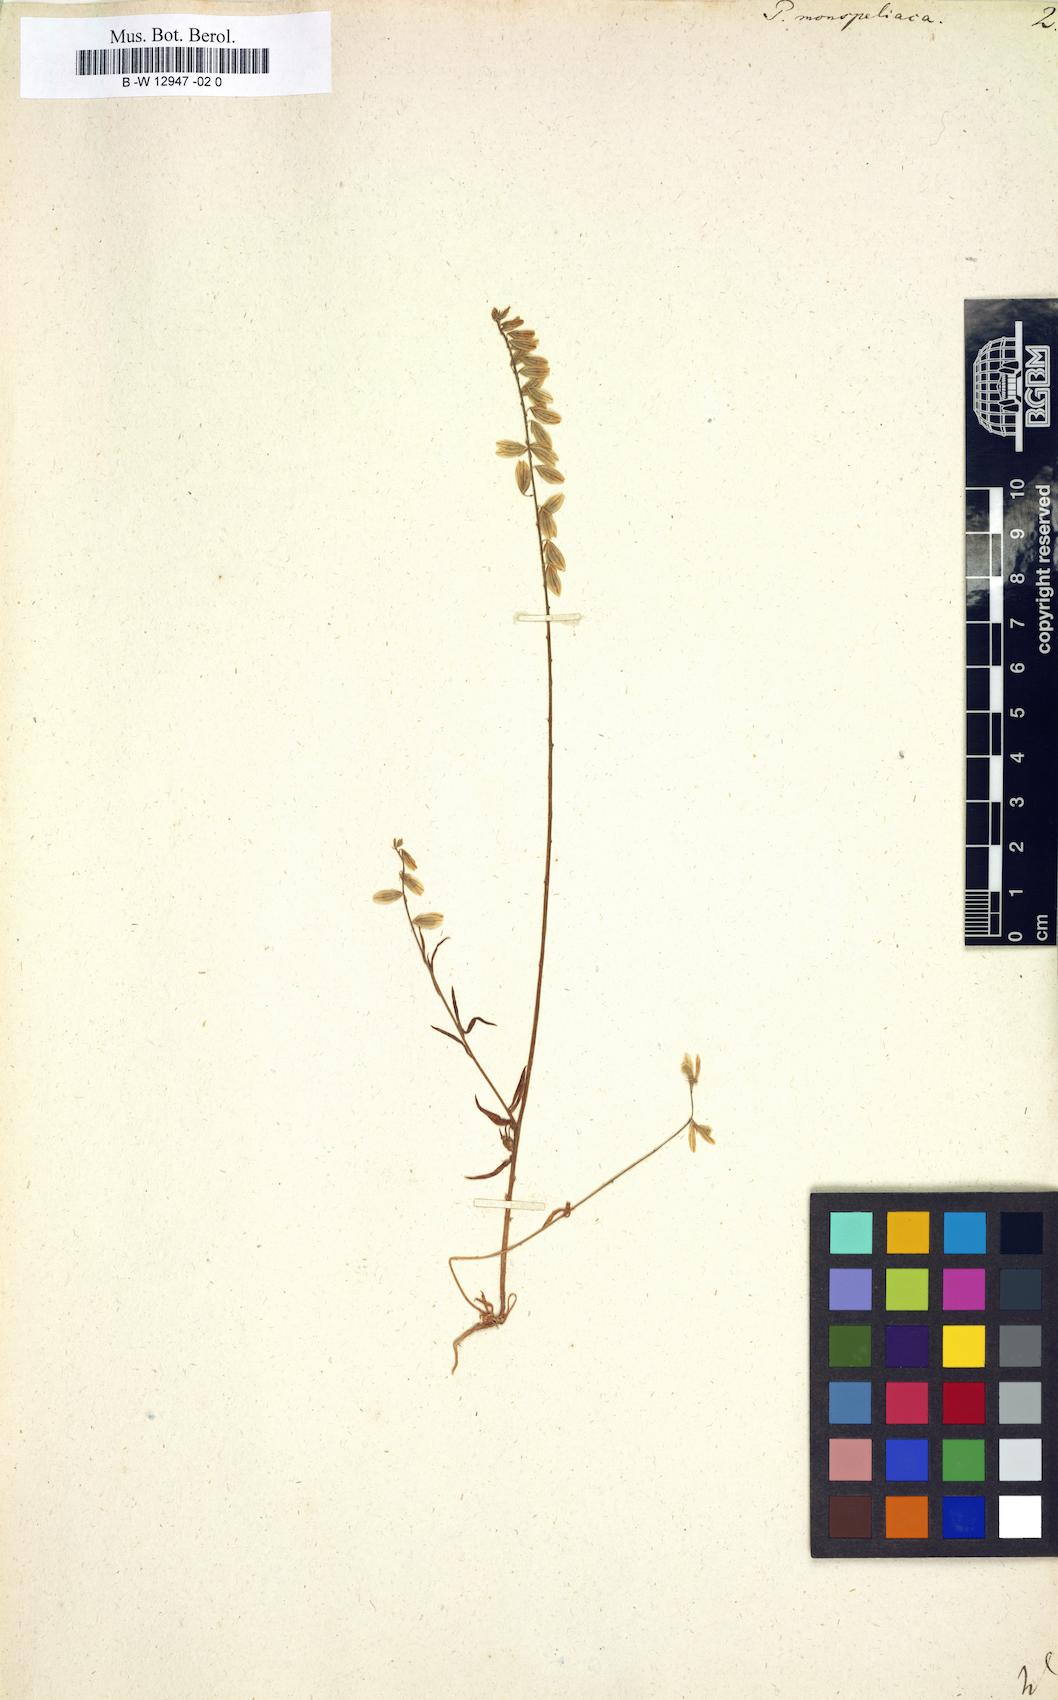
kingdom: Plantae
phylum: Tracheophyta
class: Magnoliopsida
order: Fabales
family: Polygalaceae
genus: Polygala
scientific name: Polygala monspeliaca
